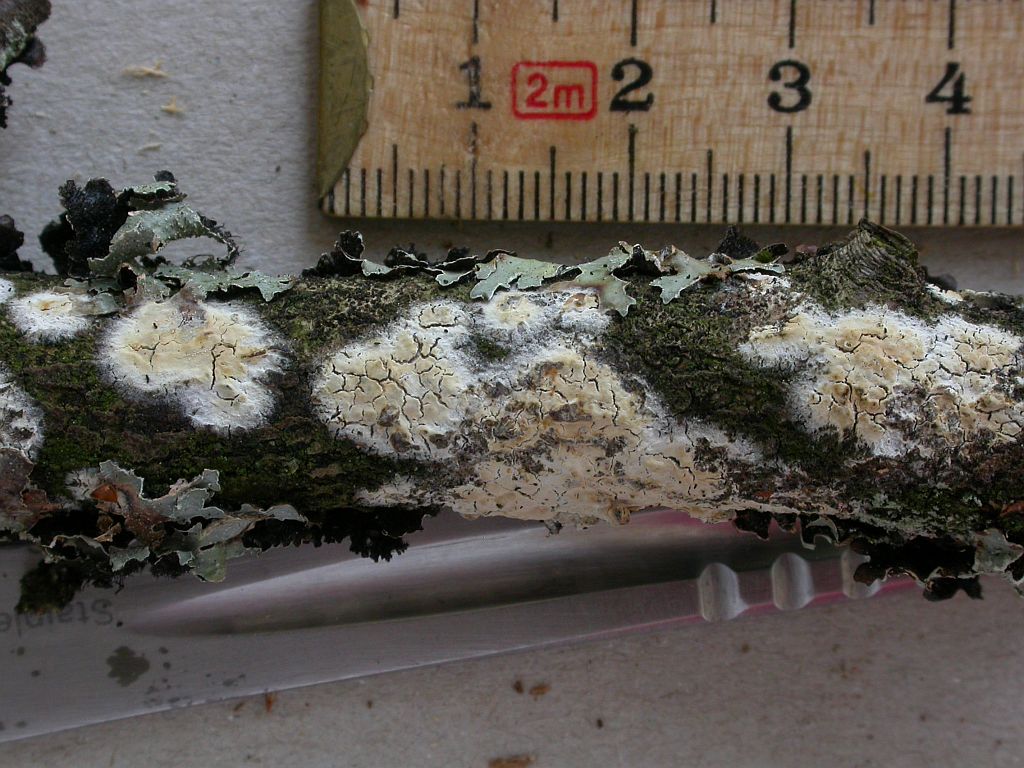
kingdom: Fungi
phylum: Basidiomycota
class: Agaricomycetes
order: Russulales
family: Stereaceae
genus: Gloeocystidiellum
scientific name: Gloeocystidiellum porosum
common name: mælkehvid olieskind
